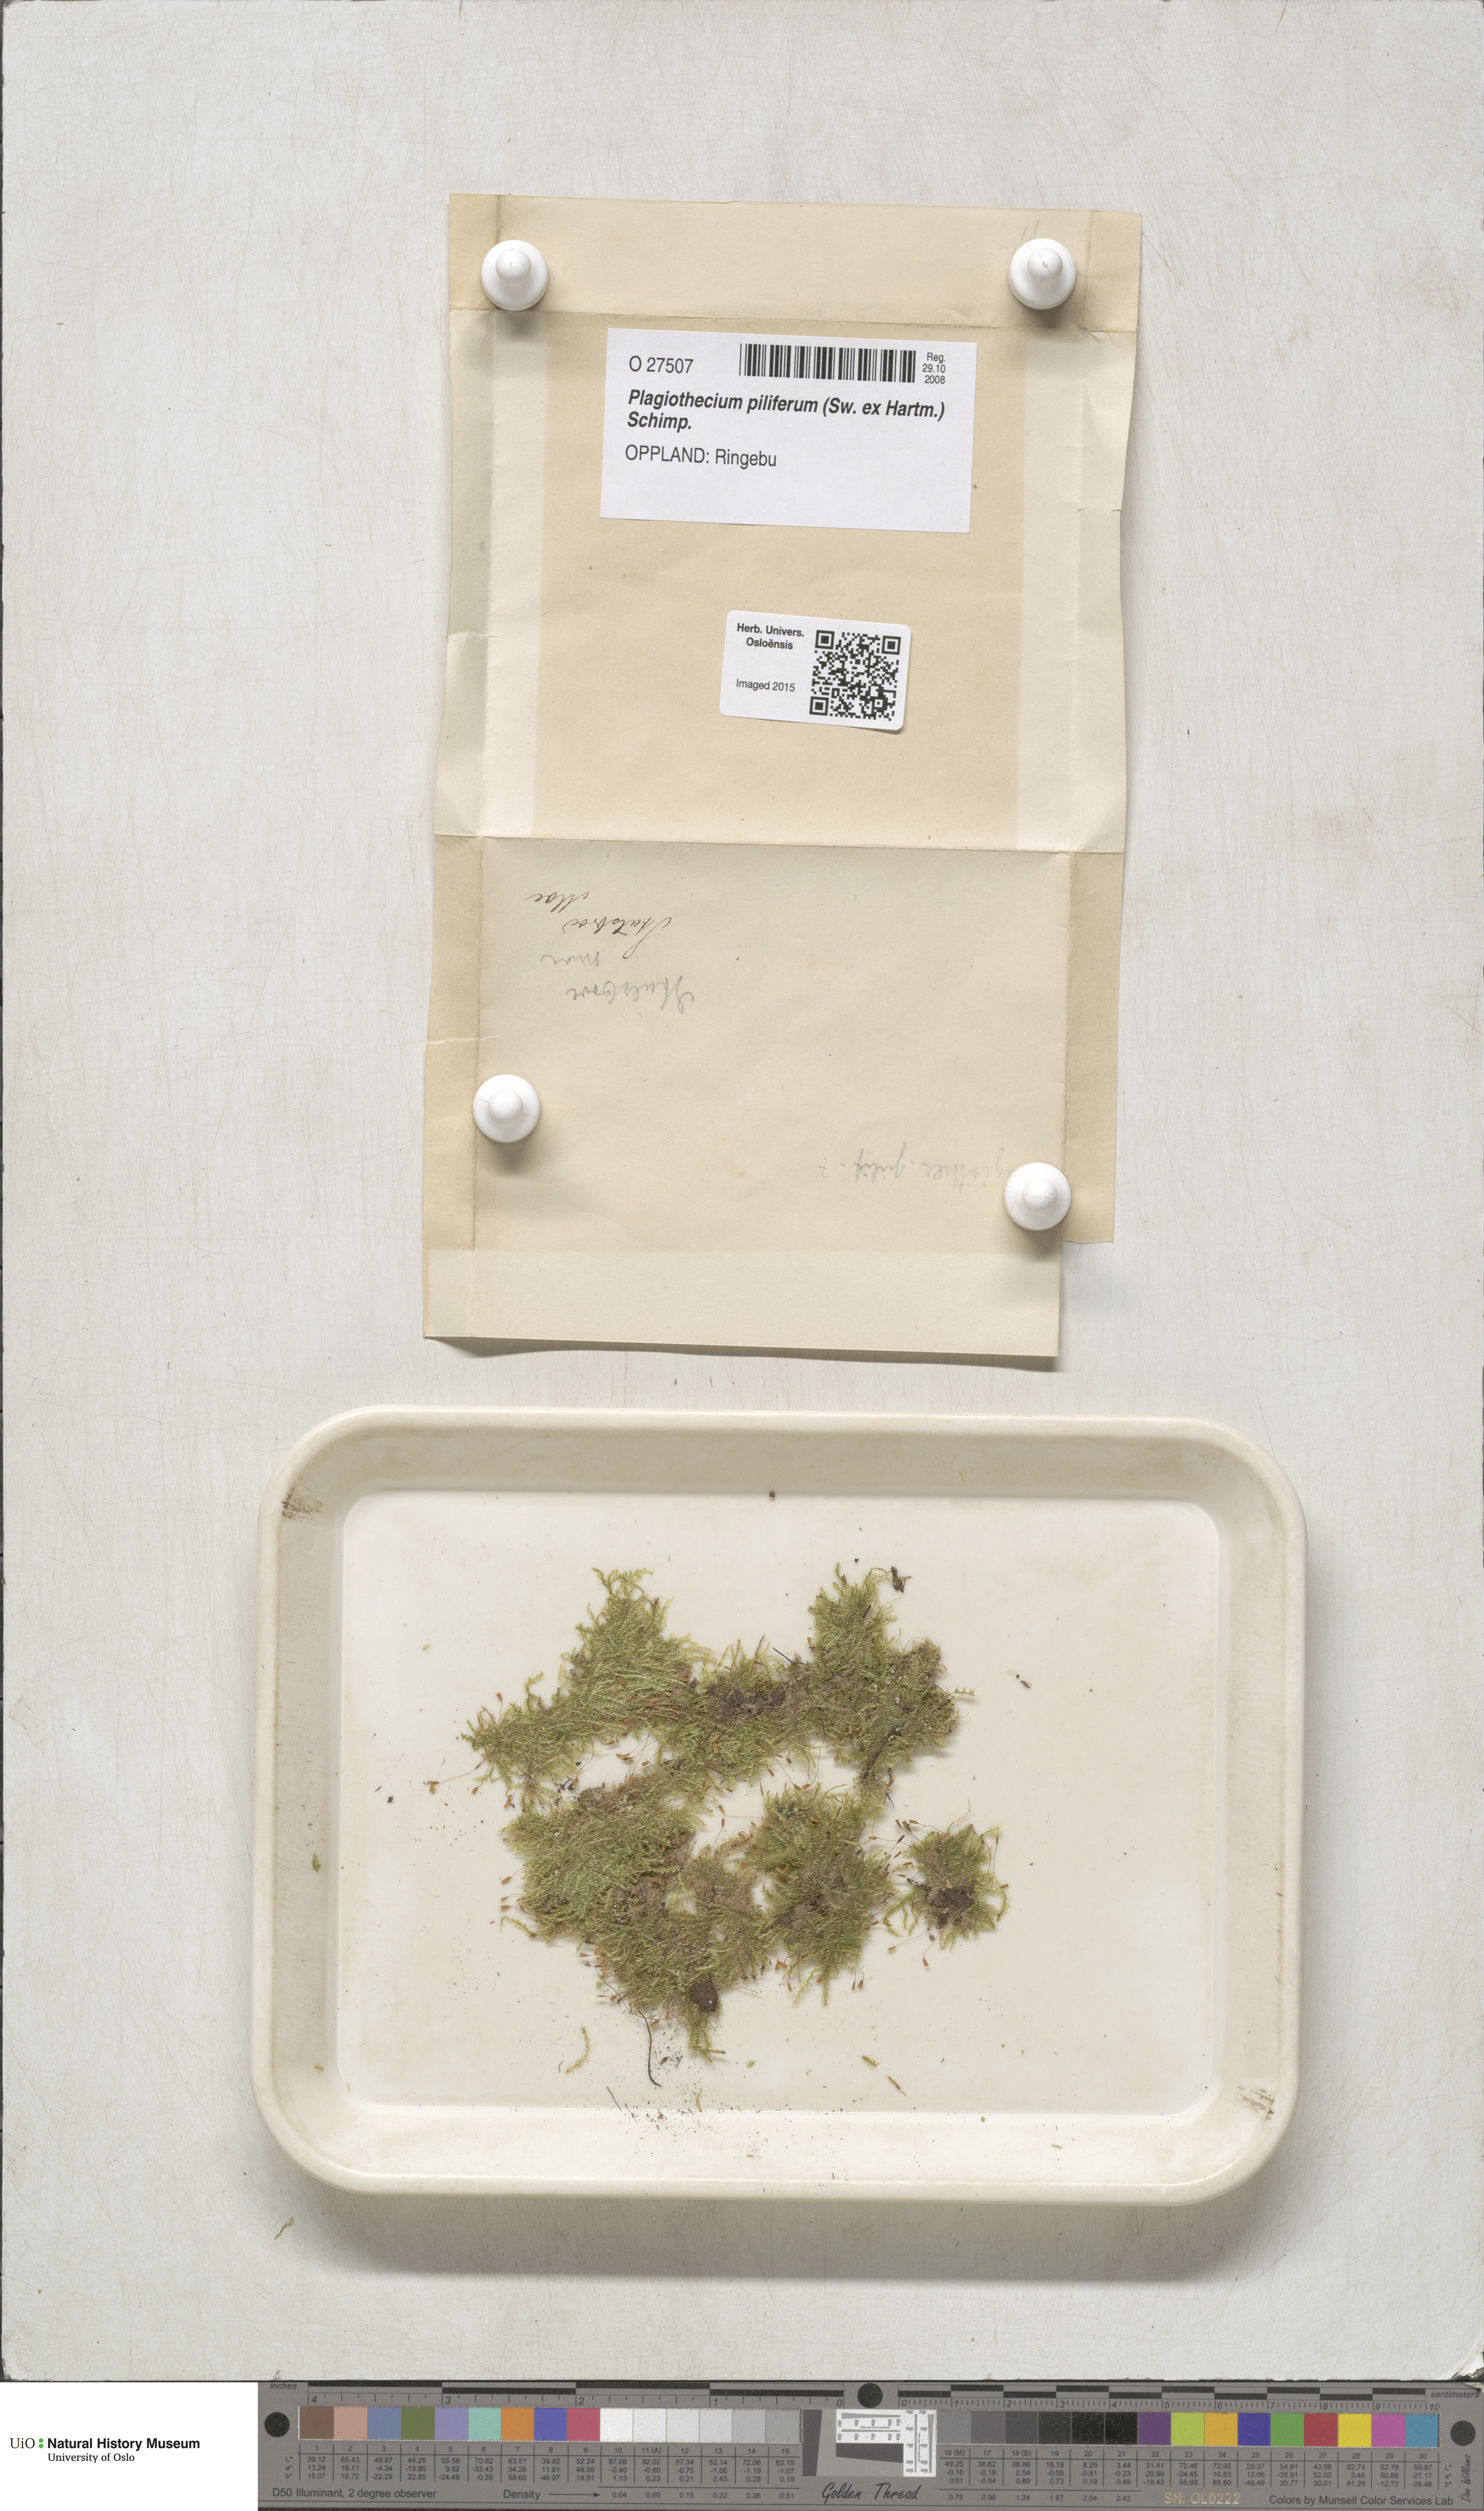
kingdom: Plantae
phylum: Bryophyta
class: Bryopsida
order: Hypnales
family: Plagiotheciaceae
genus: Rectithecium
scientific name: Rectithecium piliferum
